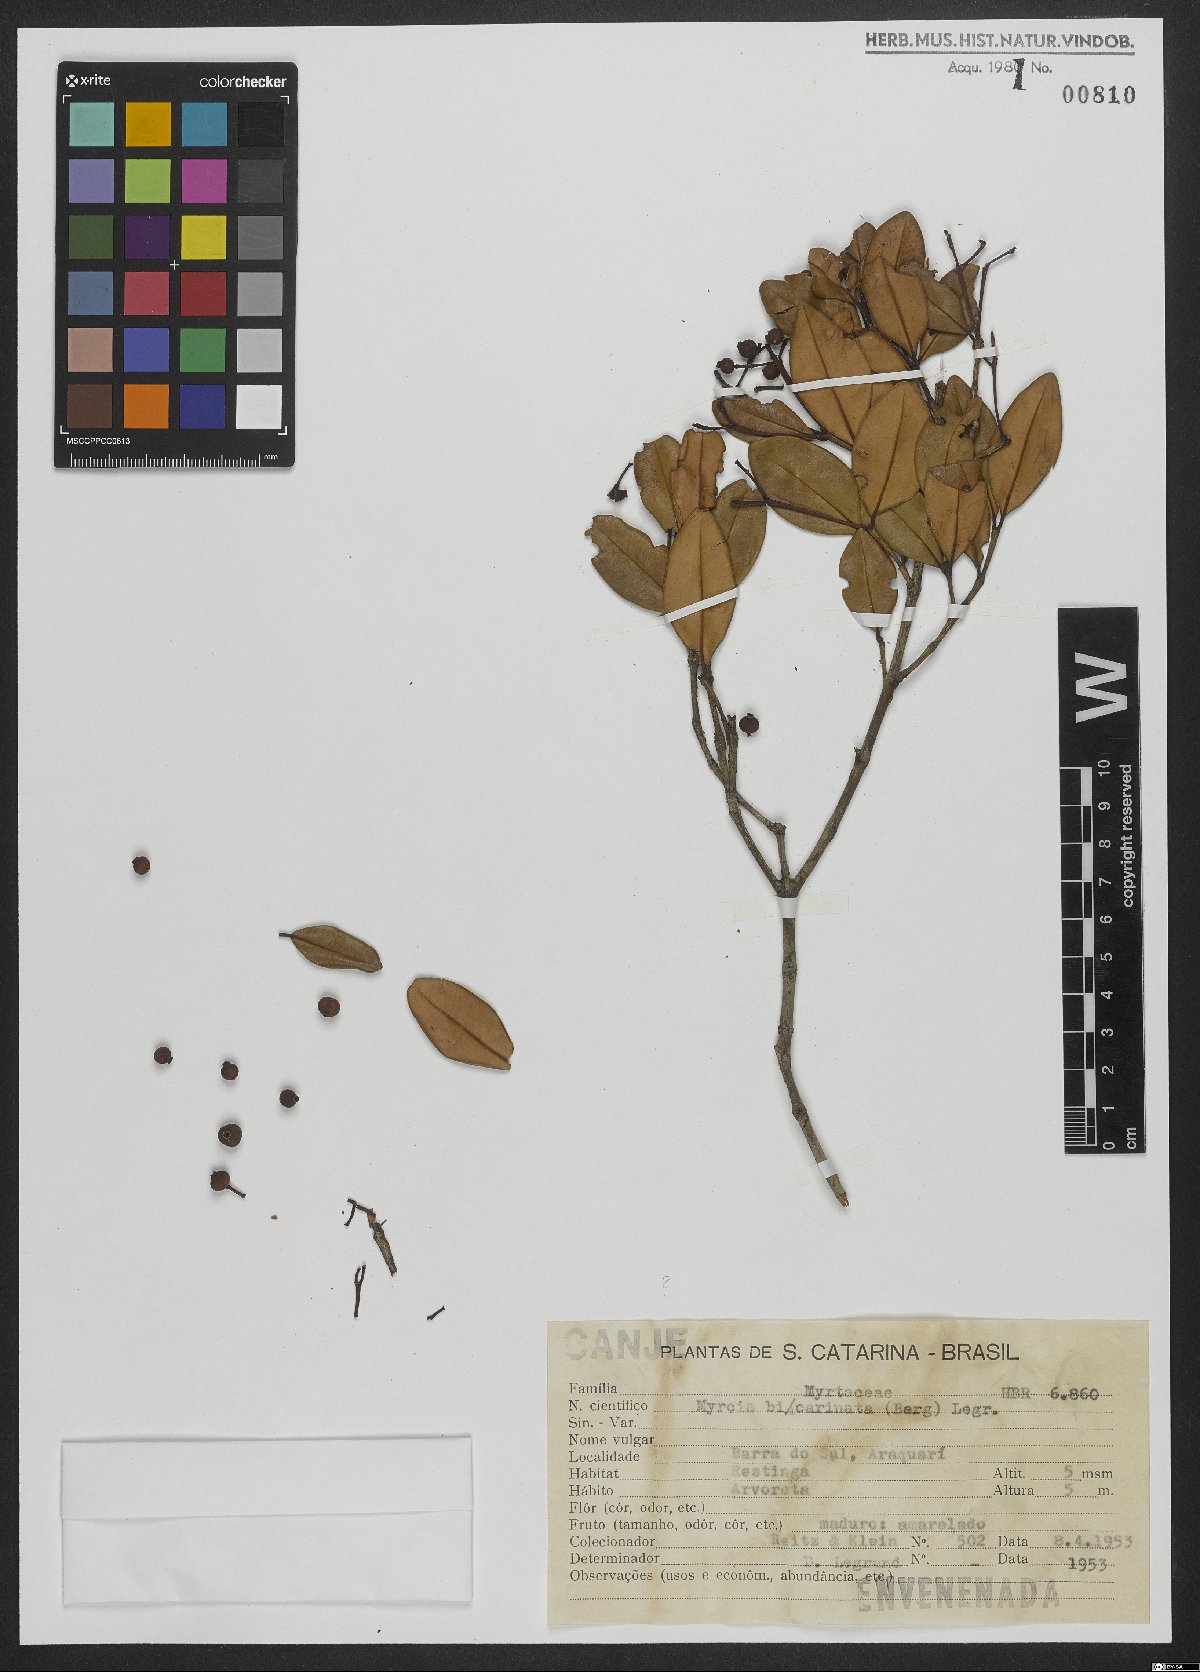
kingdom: Plantae
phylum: Tracheophyta
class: Magnoliopsida
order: Myrtales
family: Myrtaceae
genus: Myrcia
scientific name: Myrcia bicarinata
